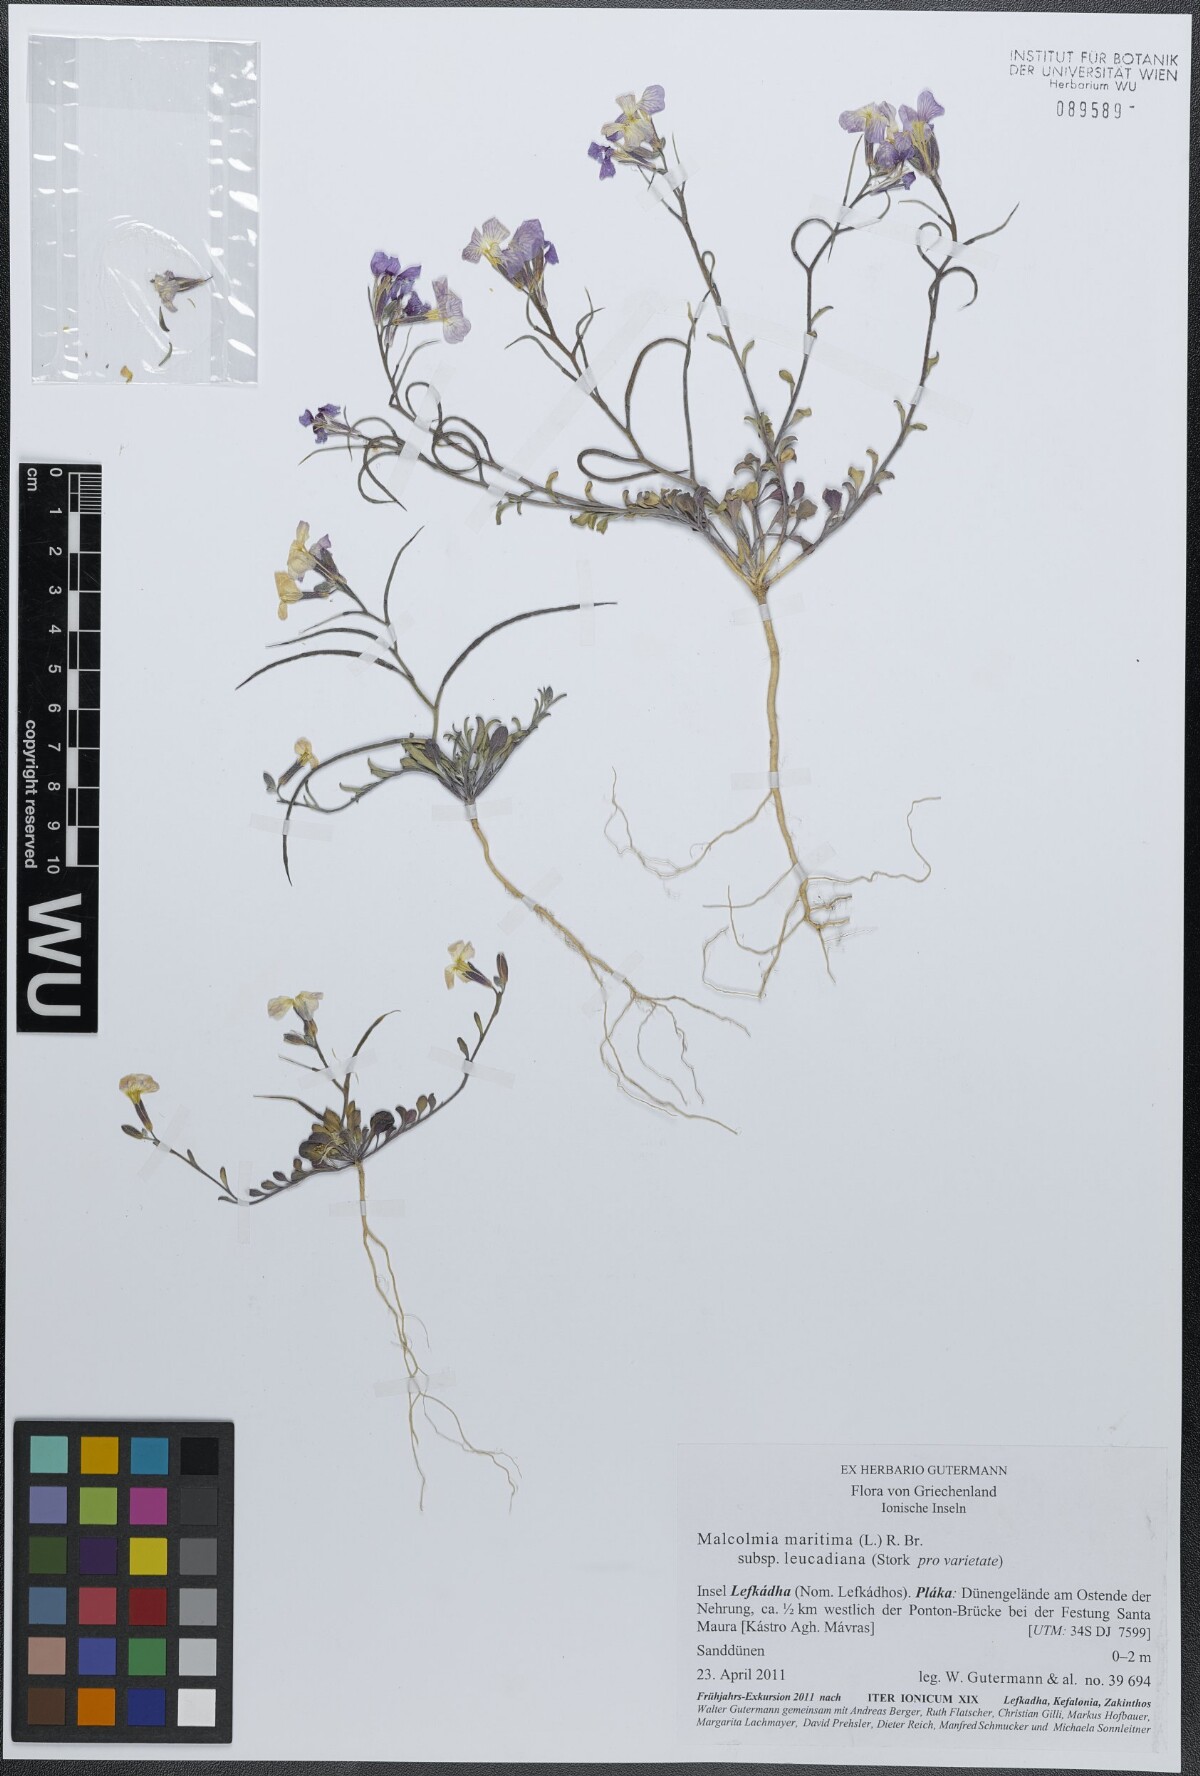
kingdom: Plantae
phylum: Tracheophyta
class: Magnoliopsida
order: Brassicales
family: Brassicaceae
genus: Malcolmia
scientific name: Malcolmia maritima
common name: Virginia stock
